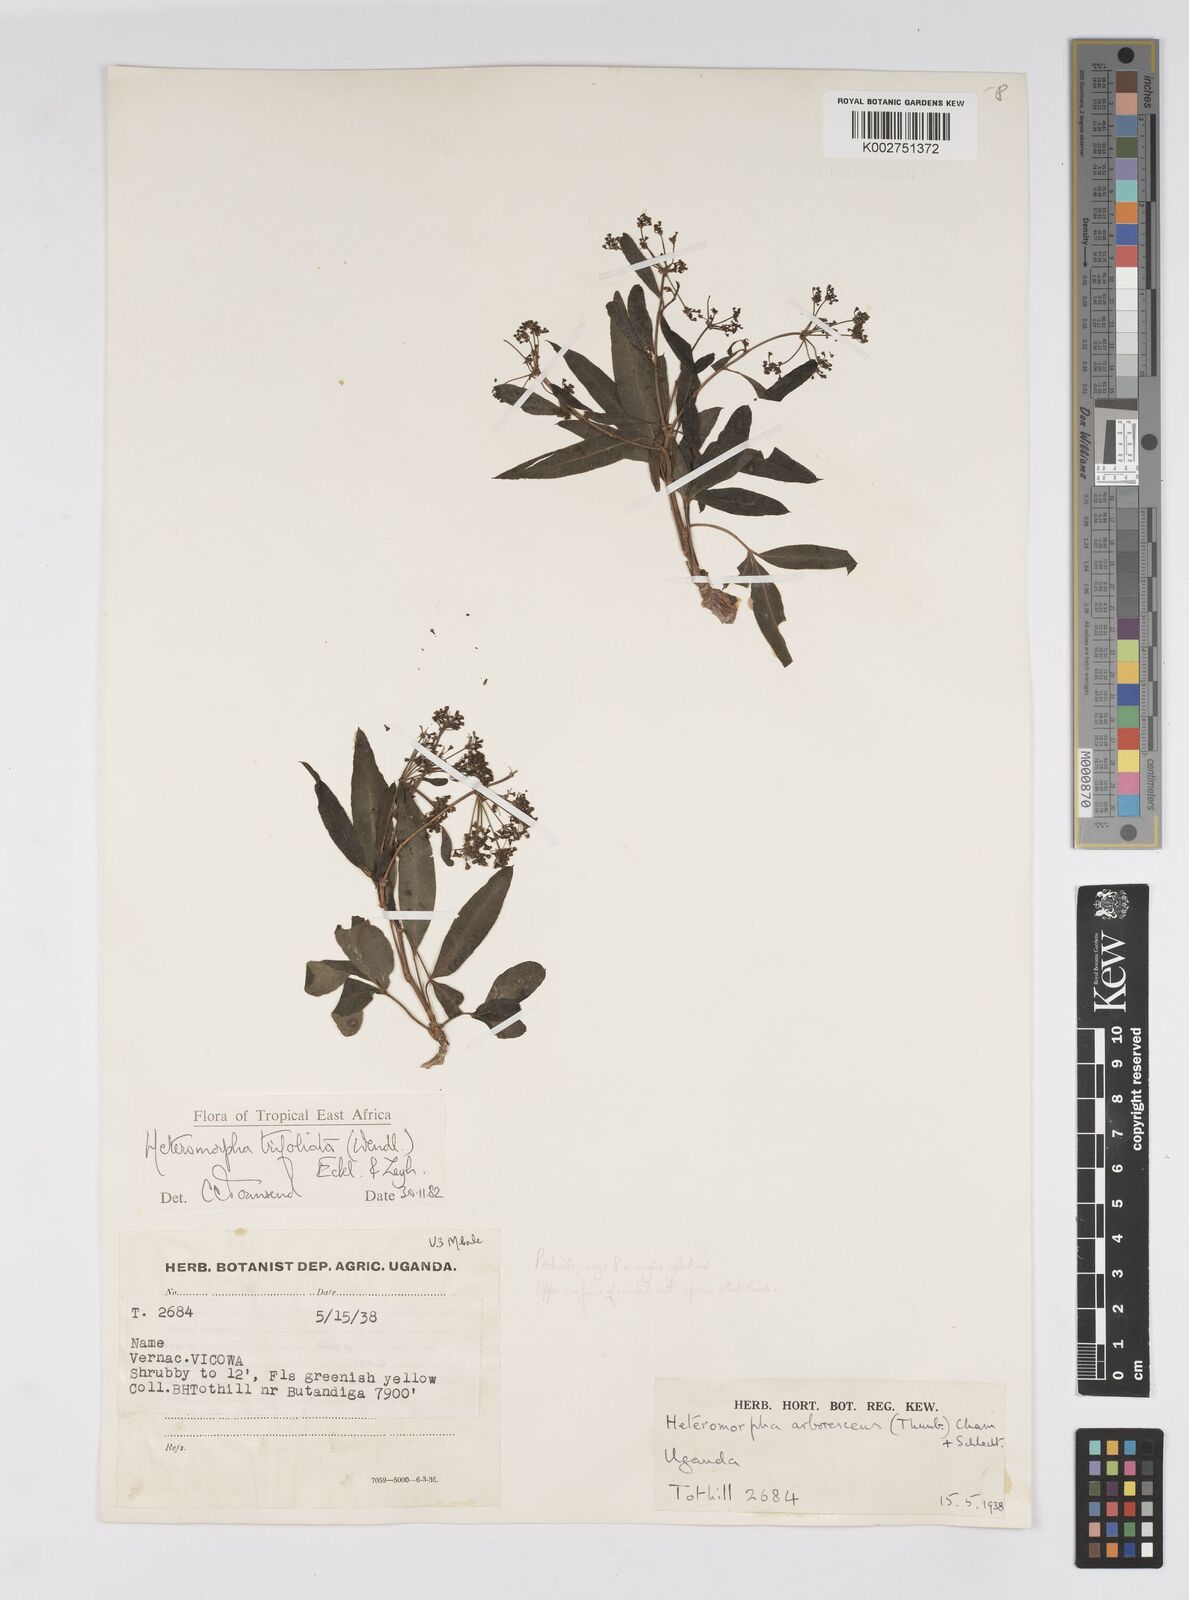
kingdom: Plantae
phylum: Tracheophyta
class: Magnoliopsida
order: Apiales
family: Apiaceae
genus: Heteromorpha
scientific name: Heteromorpha arborescens
